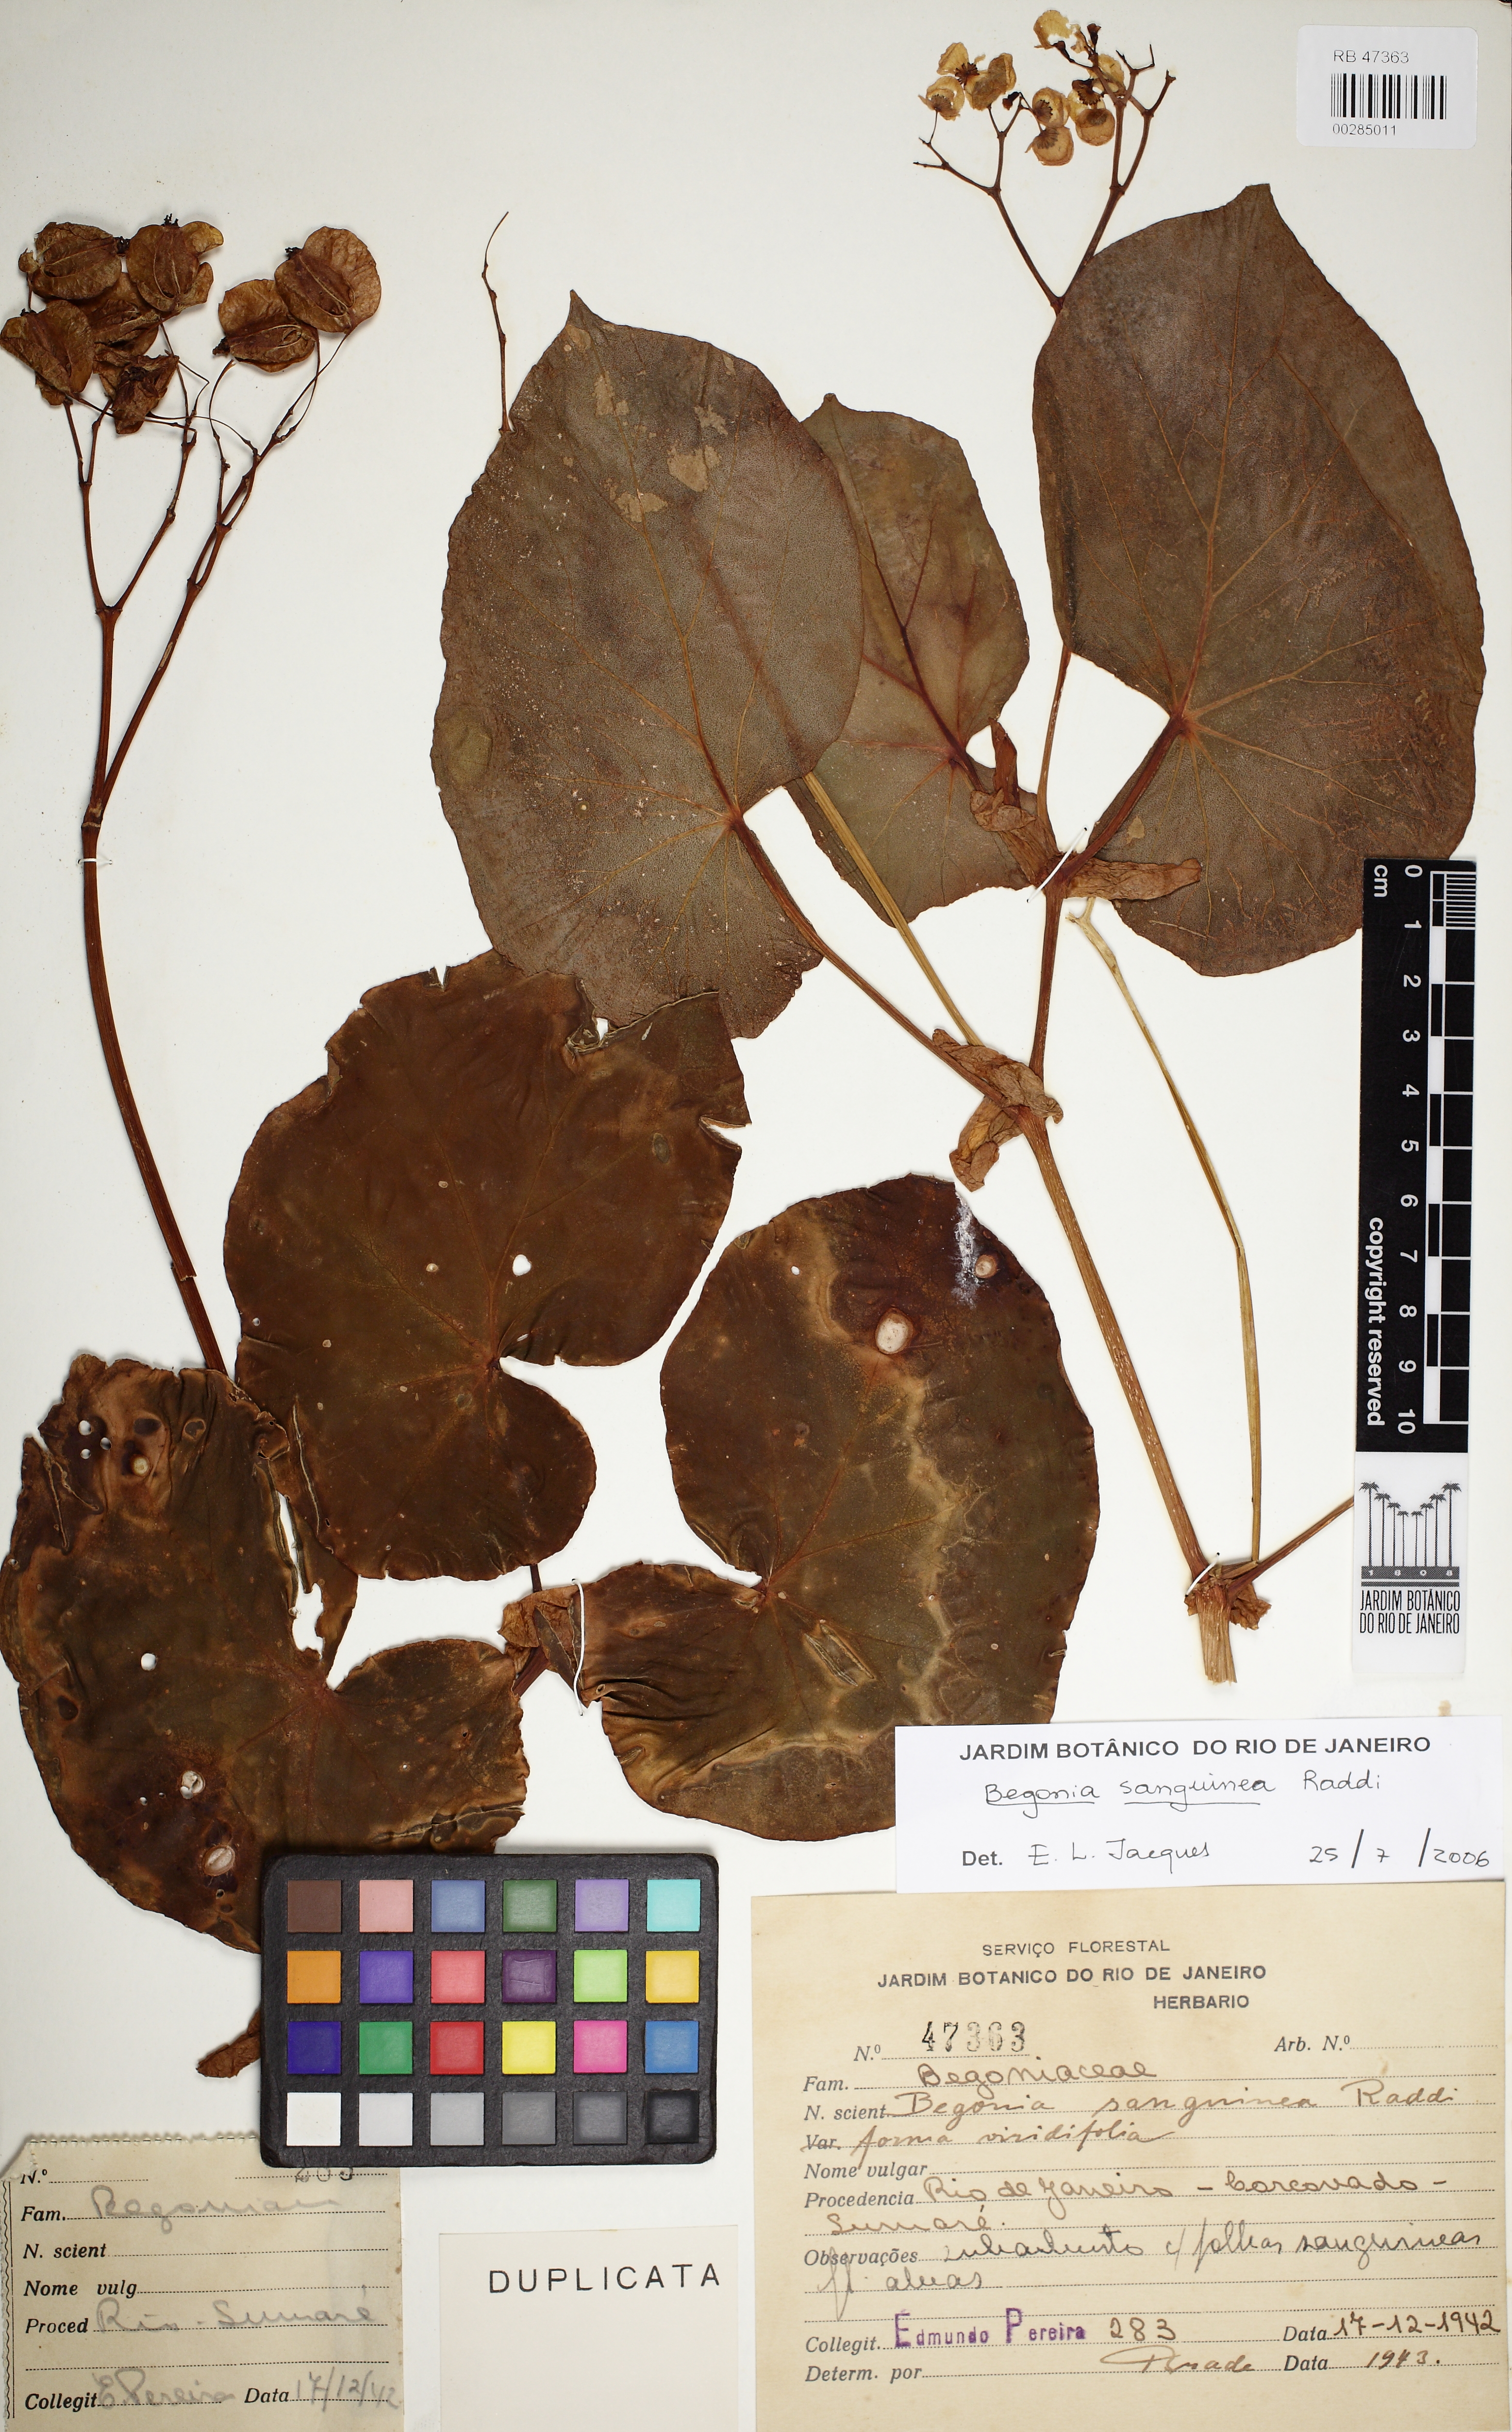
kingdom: Plantae
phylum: Tracheophyta
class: Magnoliopsida
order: Cucurbitales
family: Begoniaceae
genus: Begonia
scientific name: Begonia sanguinea
